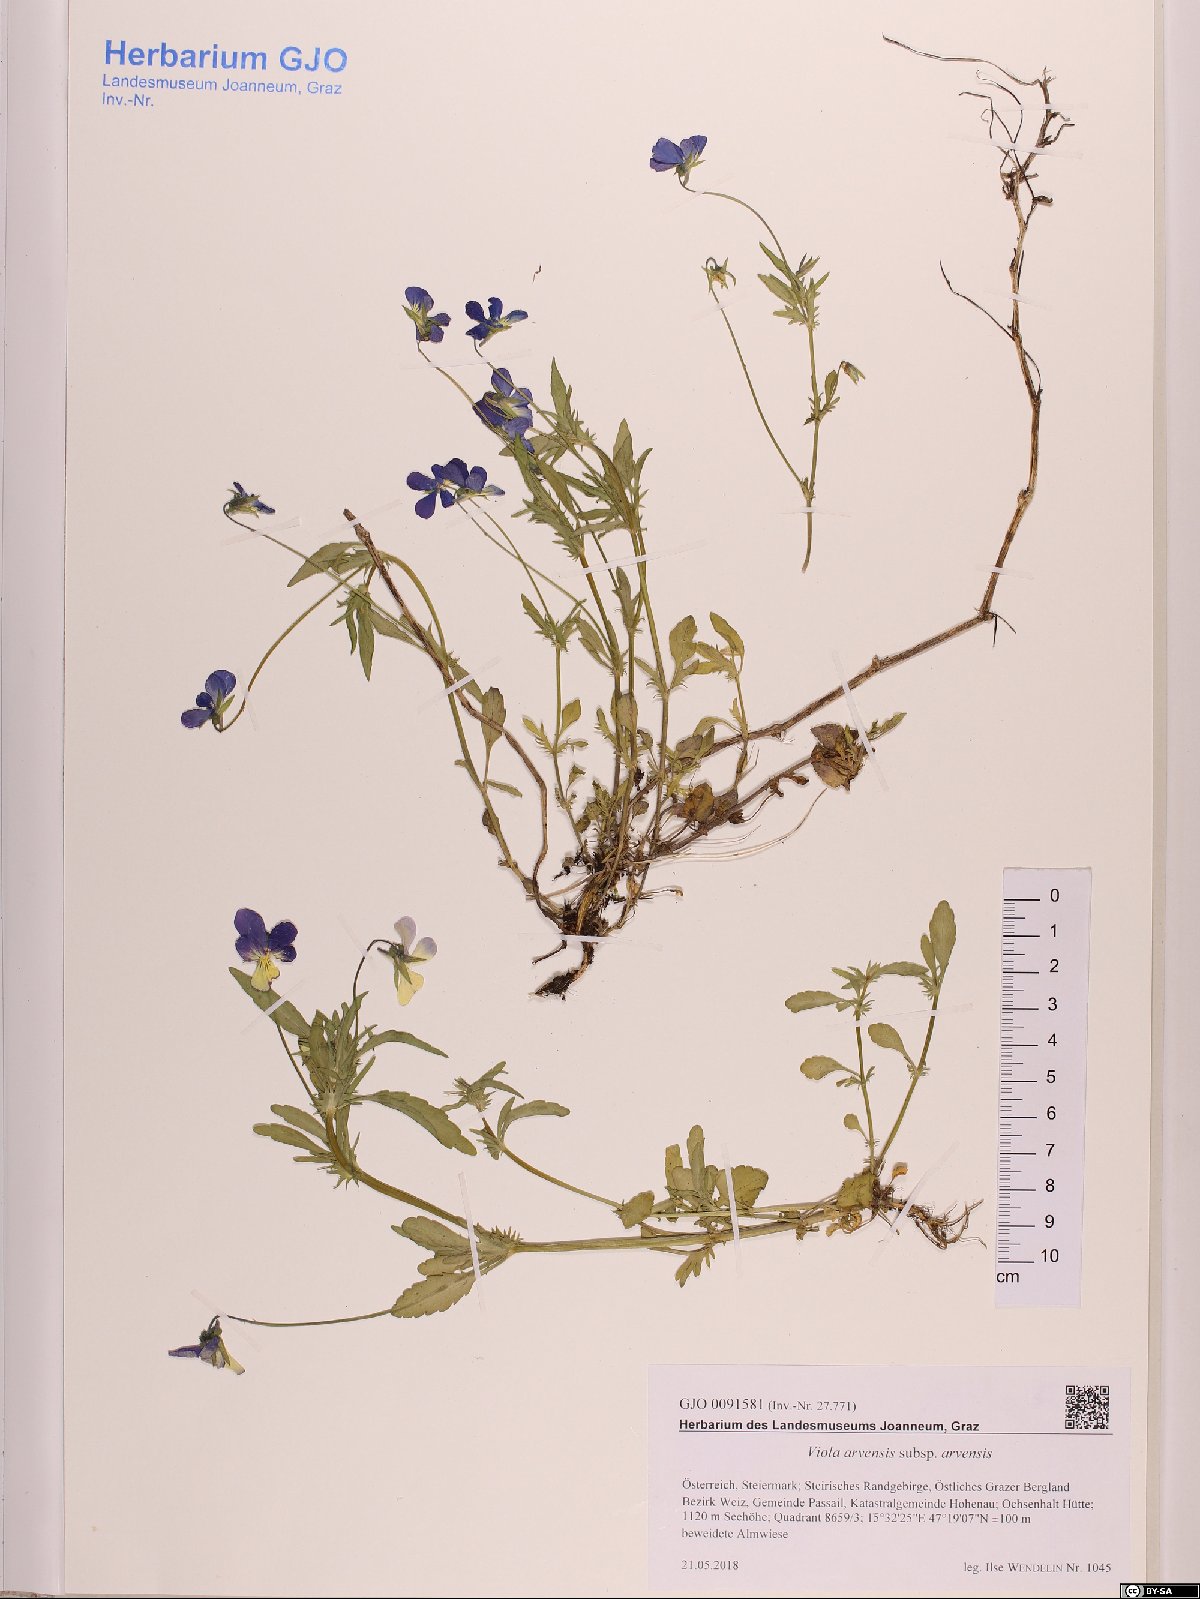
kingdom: Plantae
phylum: Tracheophyta
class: Magnoliopsida
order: Malpighiales
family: Violaceae
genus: Viola
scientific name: Viola arvensis
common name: Field pansy
